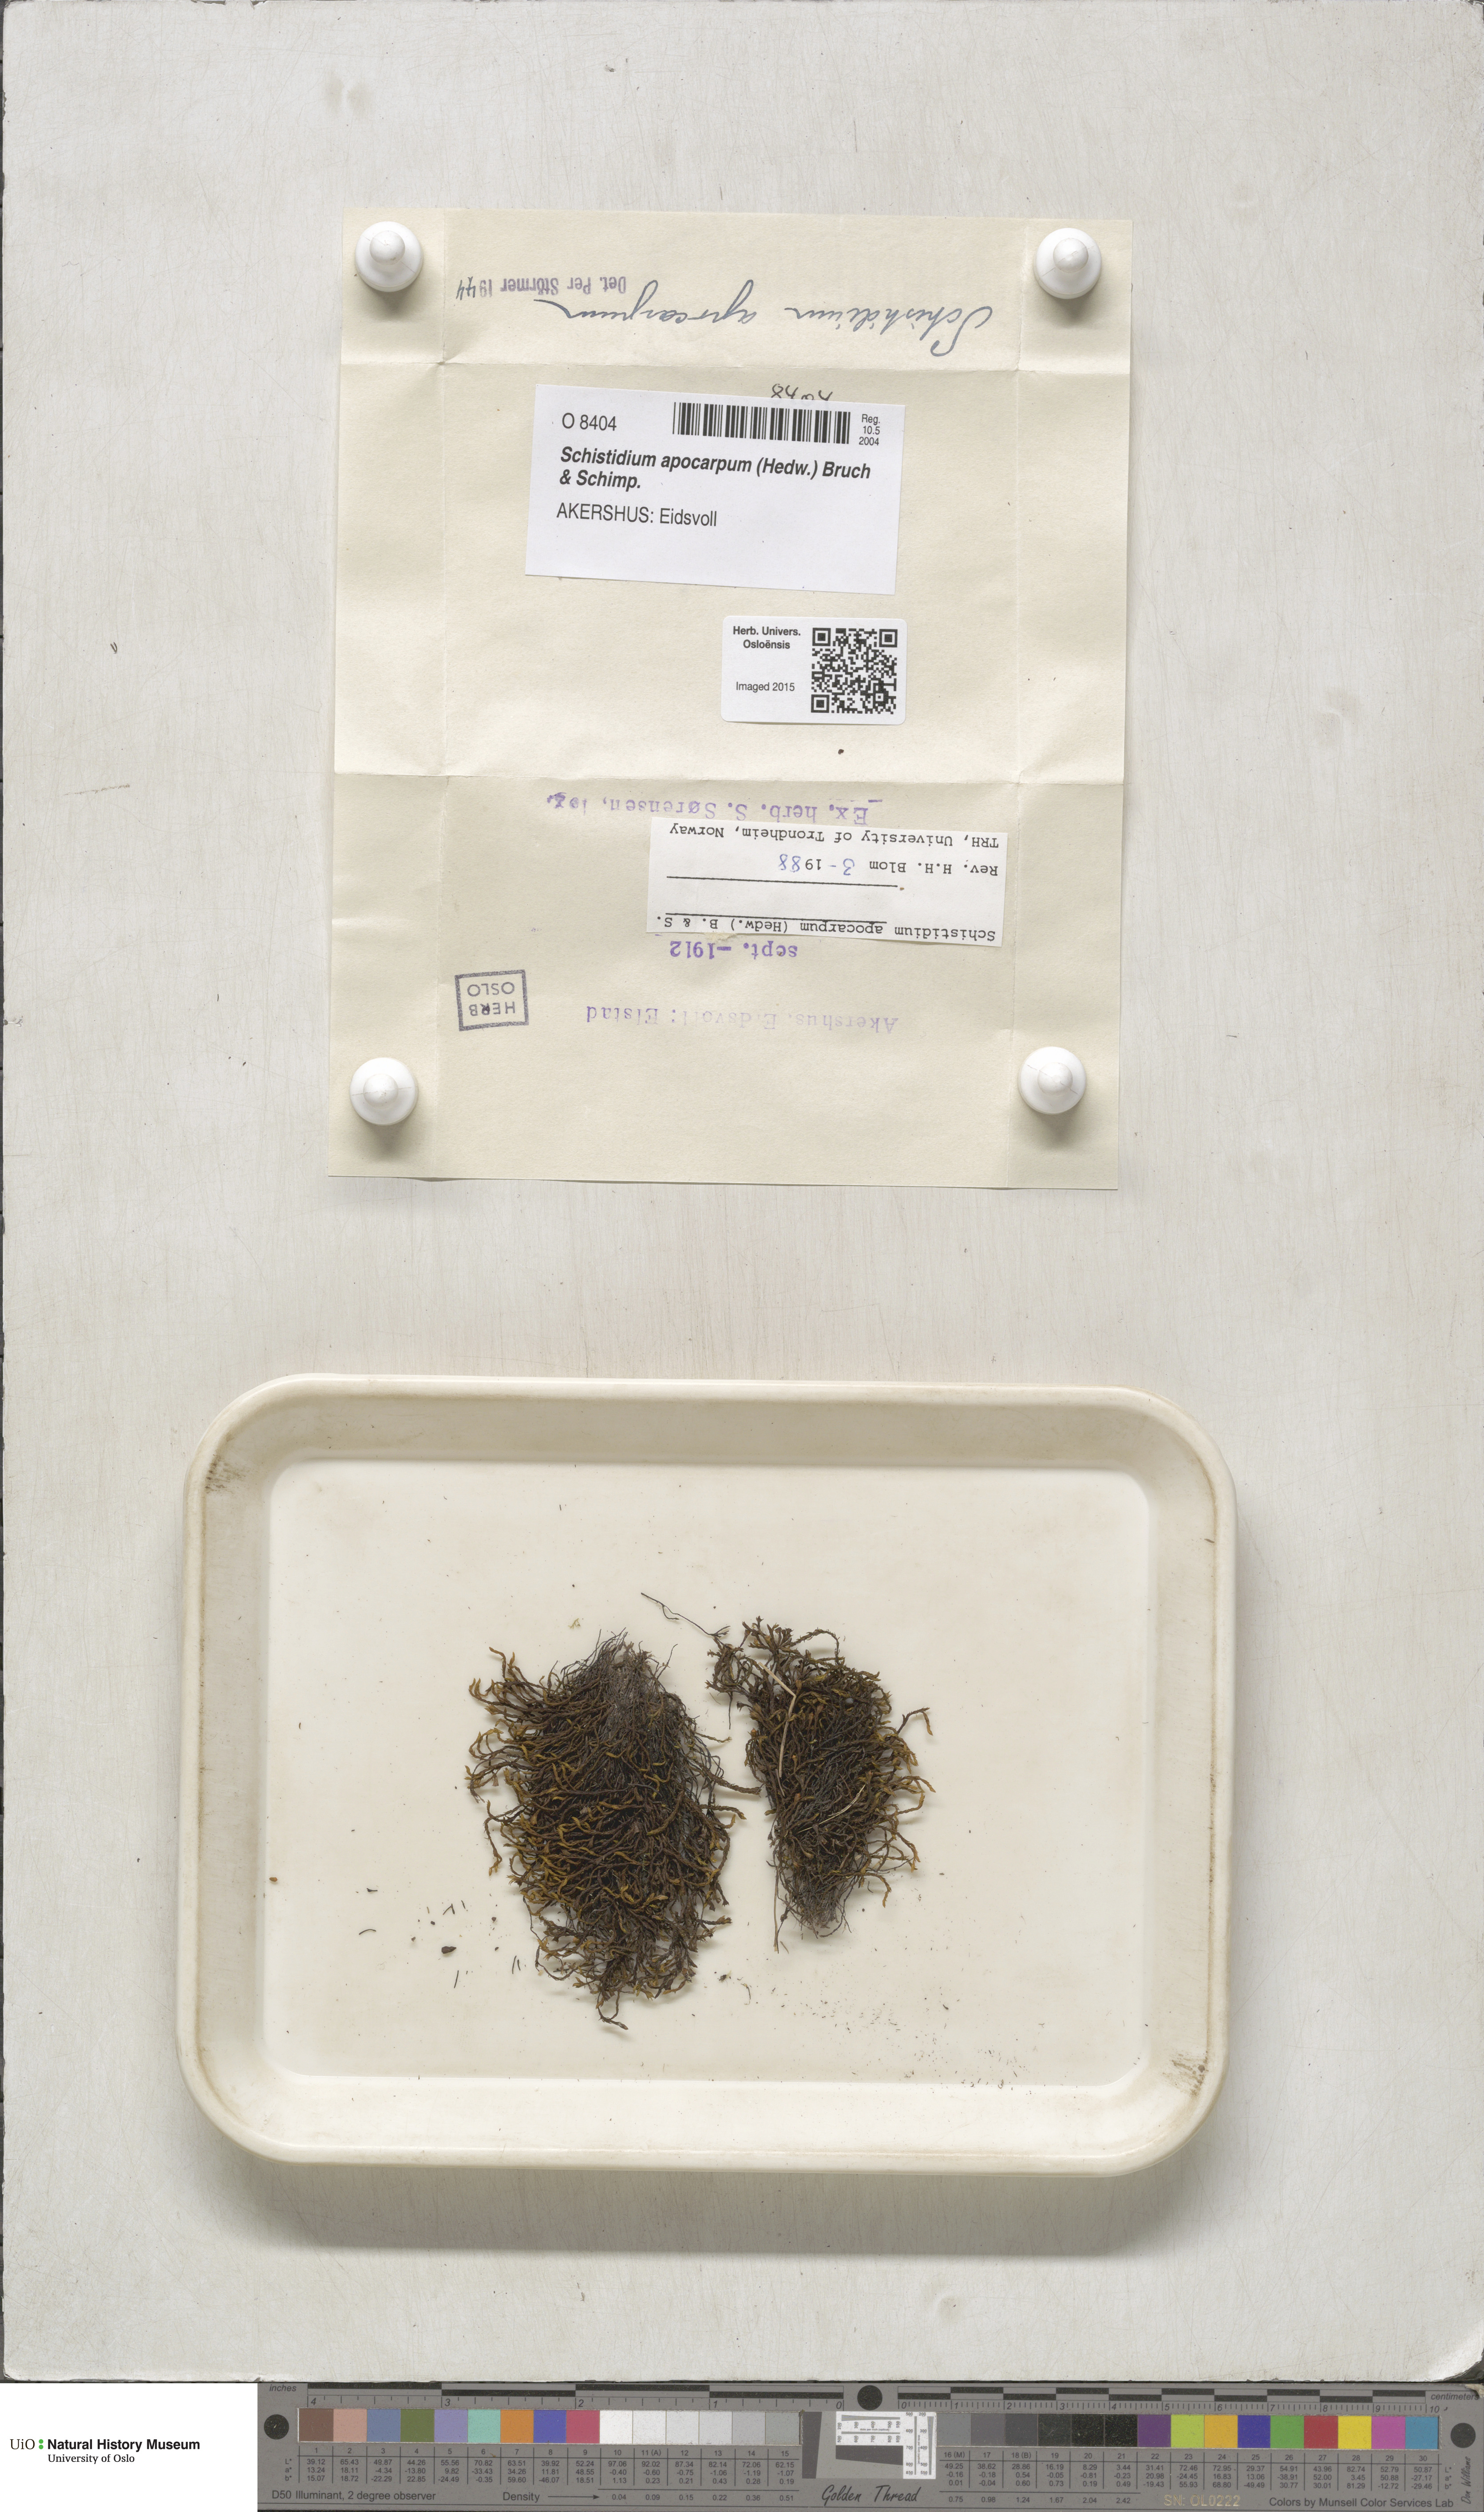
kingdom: Plantae
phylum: Bryophyta
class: Bryopsida
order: Grimmiales
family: Grimmiaceae
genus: Schistidium
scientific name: Schistidium apocarpum
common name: Radiate bloom moss
